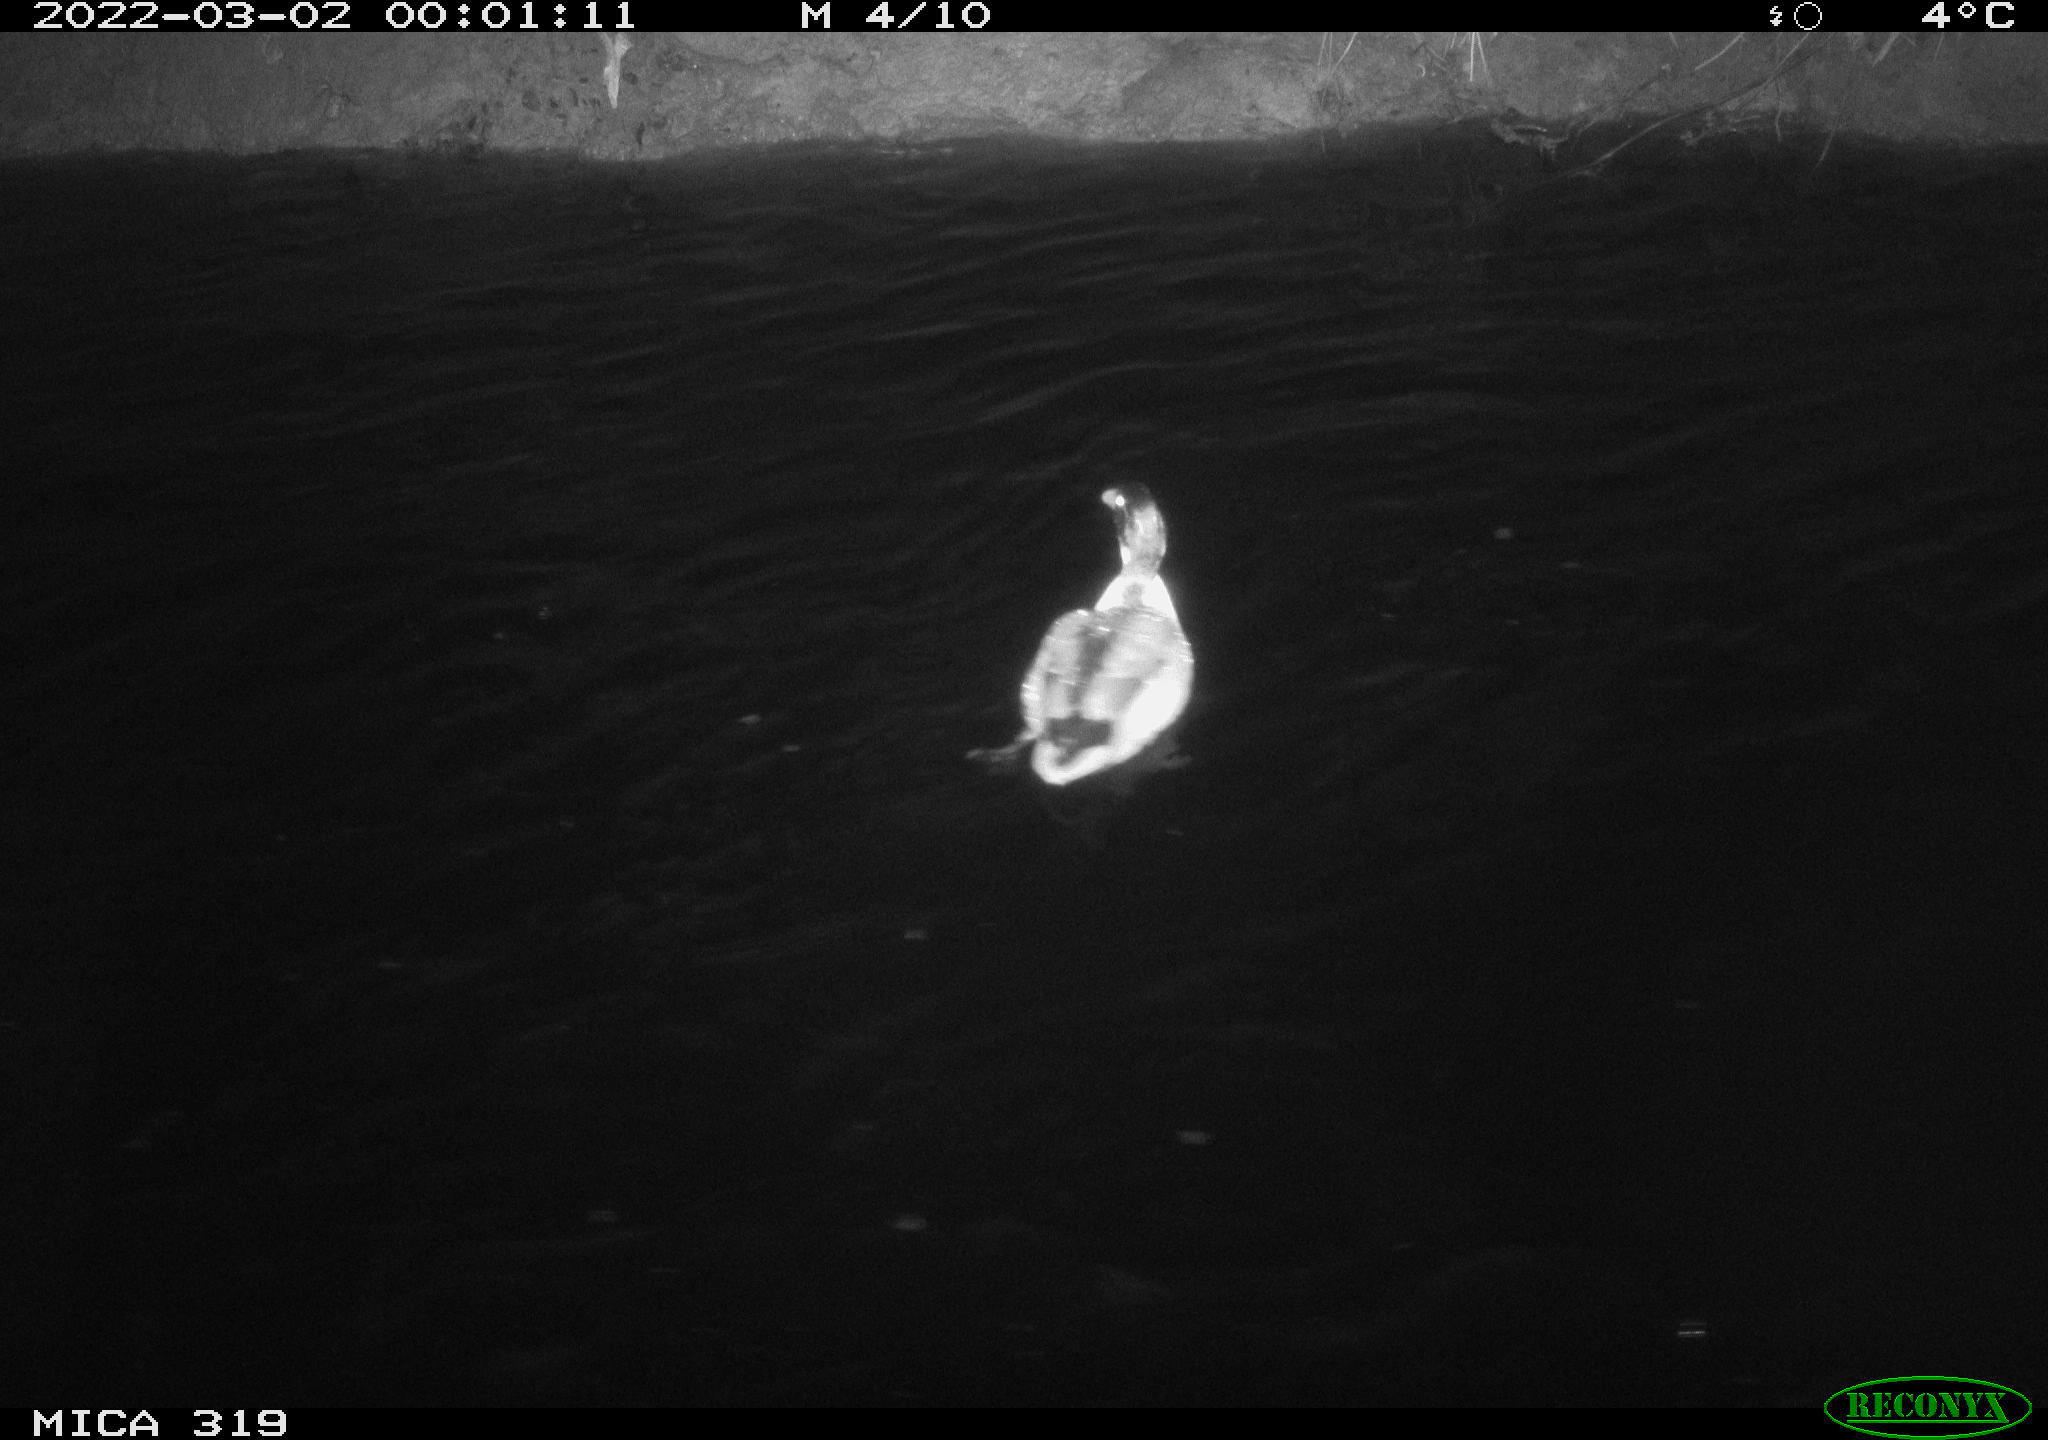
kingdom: Animalia
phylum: Chordata
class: Aves
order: Anseriformes
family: Anatidae
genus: Anas
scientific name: Anas platyrhynchos
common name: Mallard
